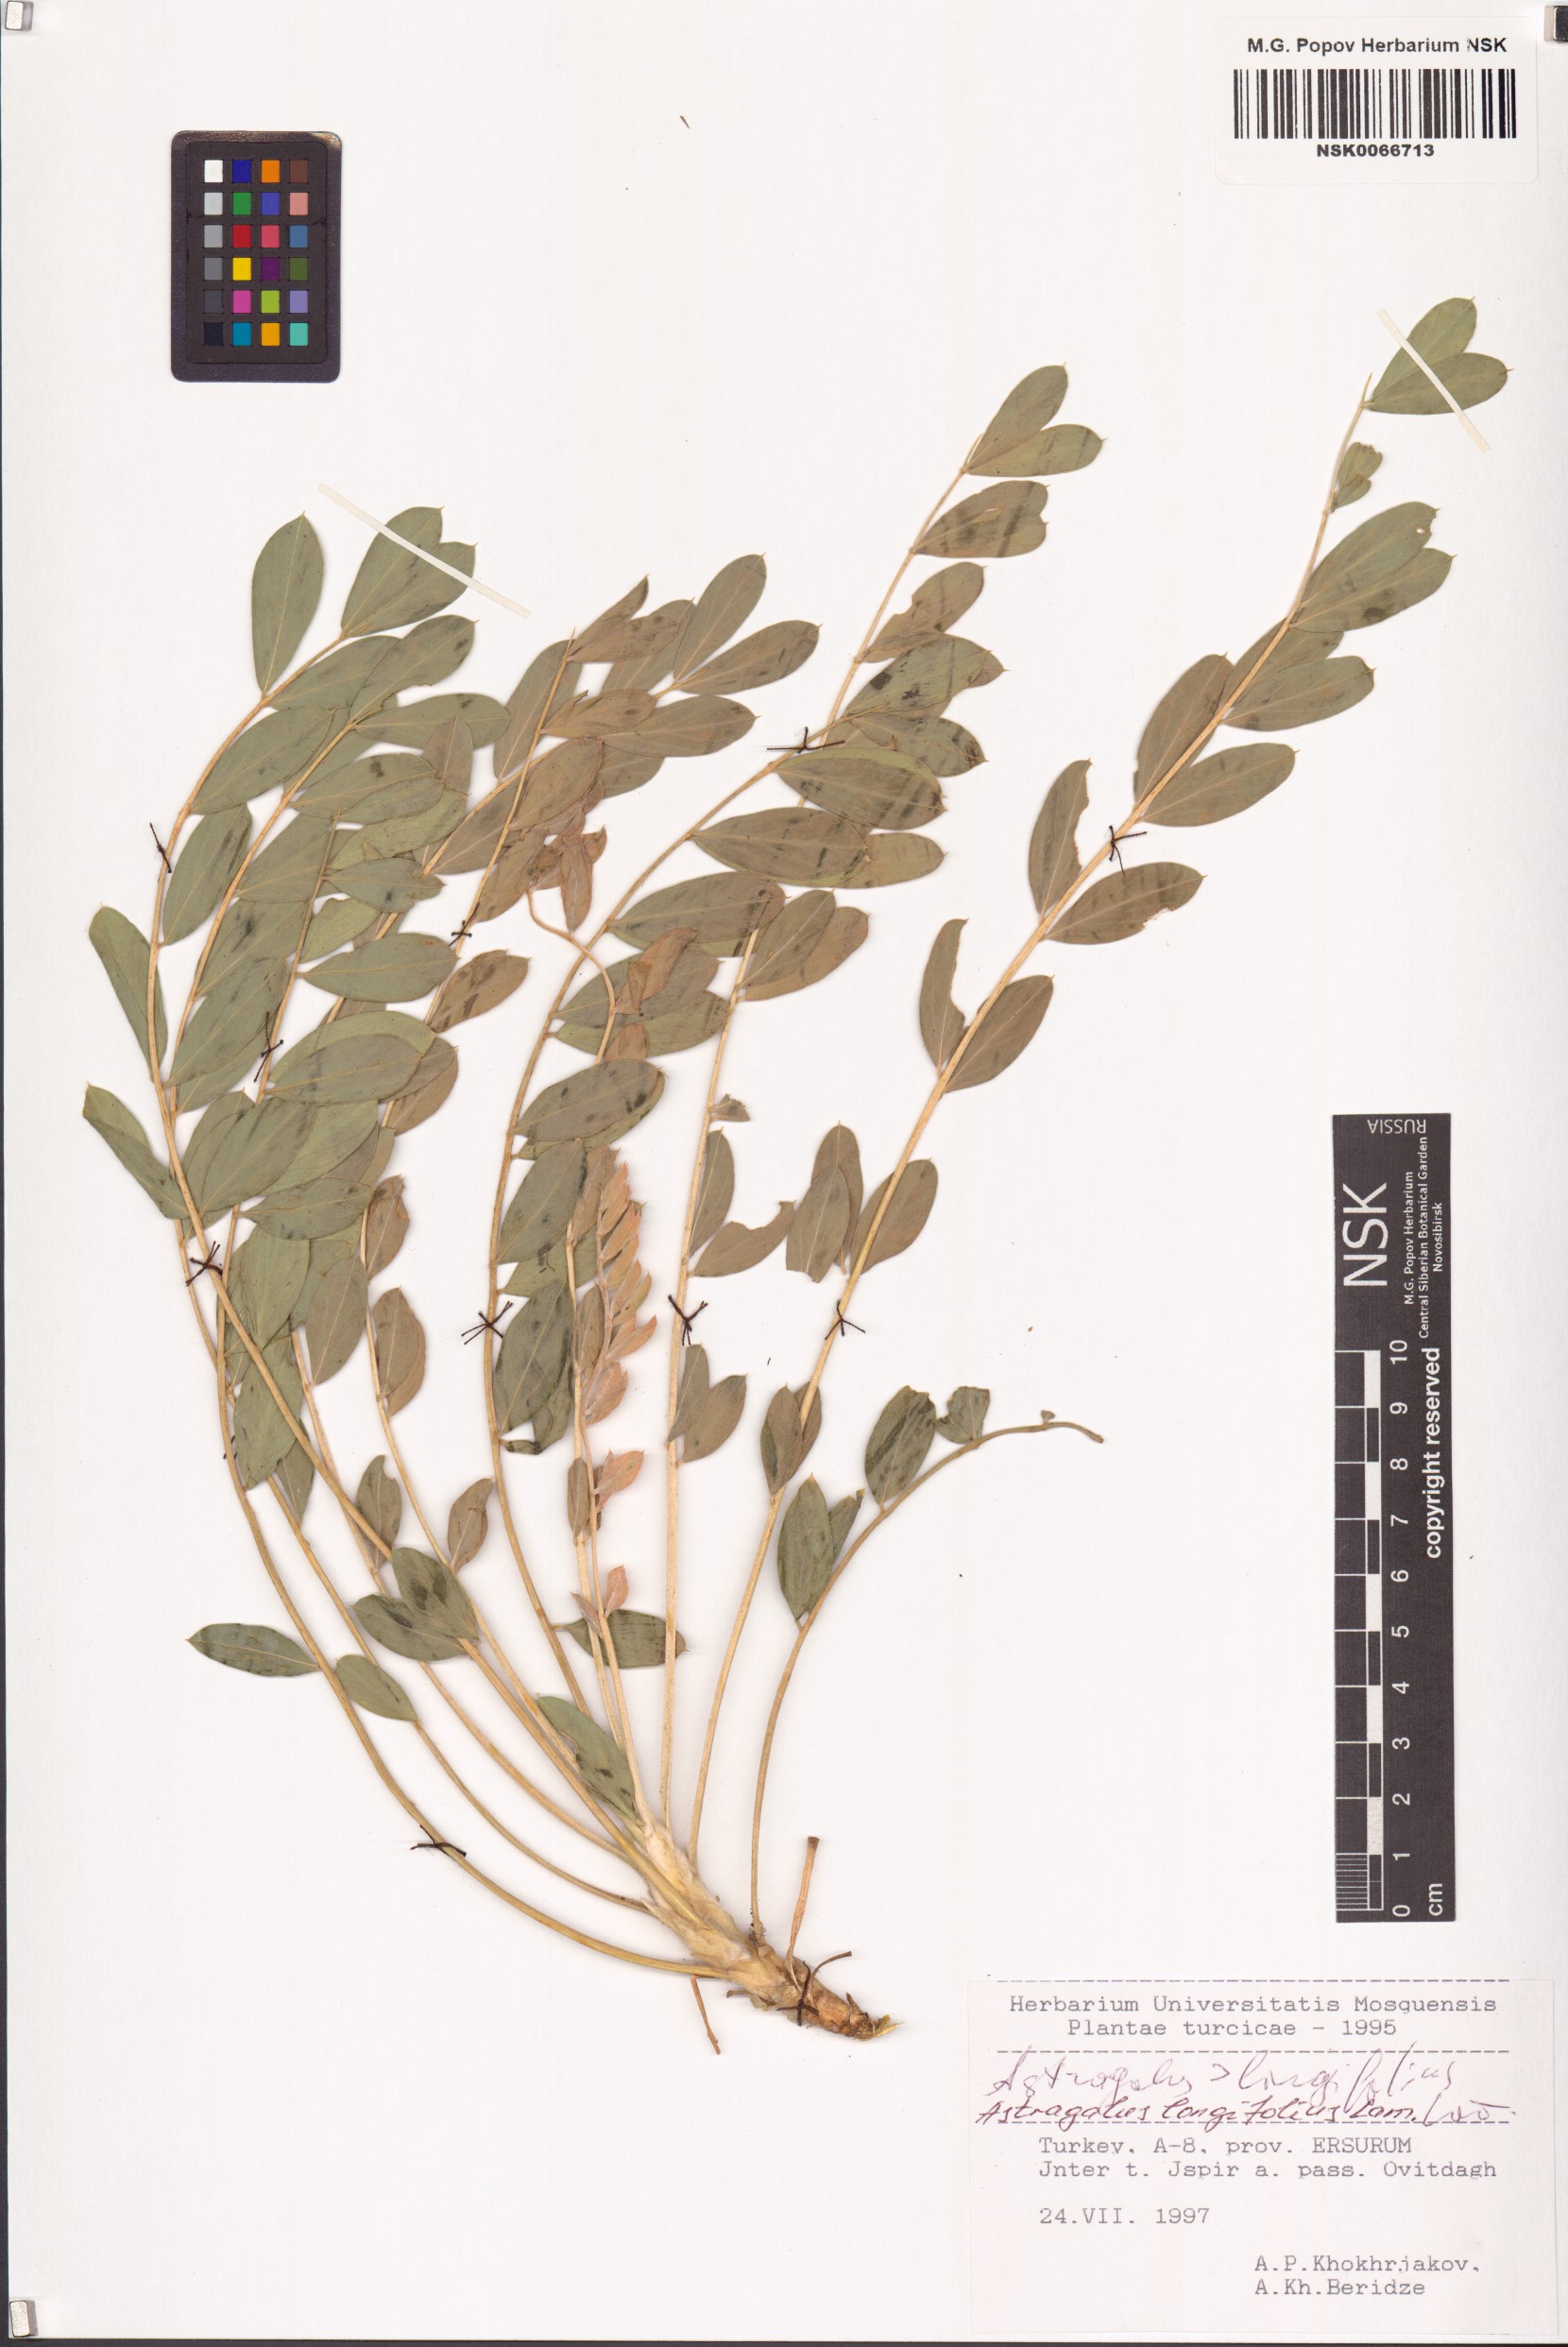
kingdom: Plantae
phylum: Tracheophyta
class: Magnoliopsida
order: Fabales
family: Fabaceae
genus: Astragalus
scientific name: Astragalus longifolius
